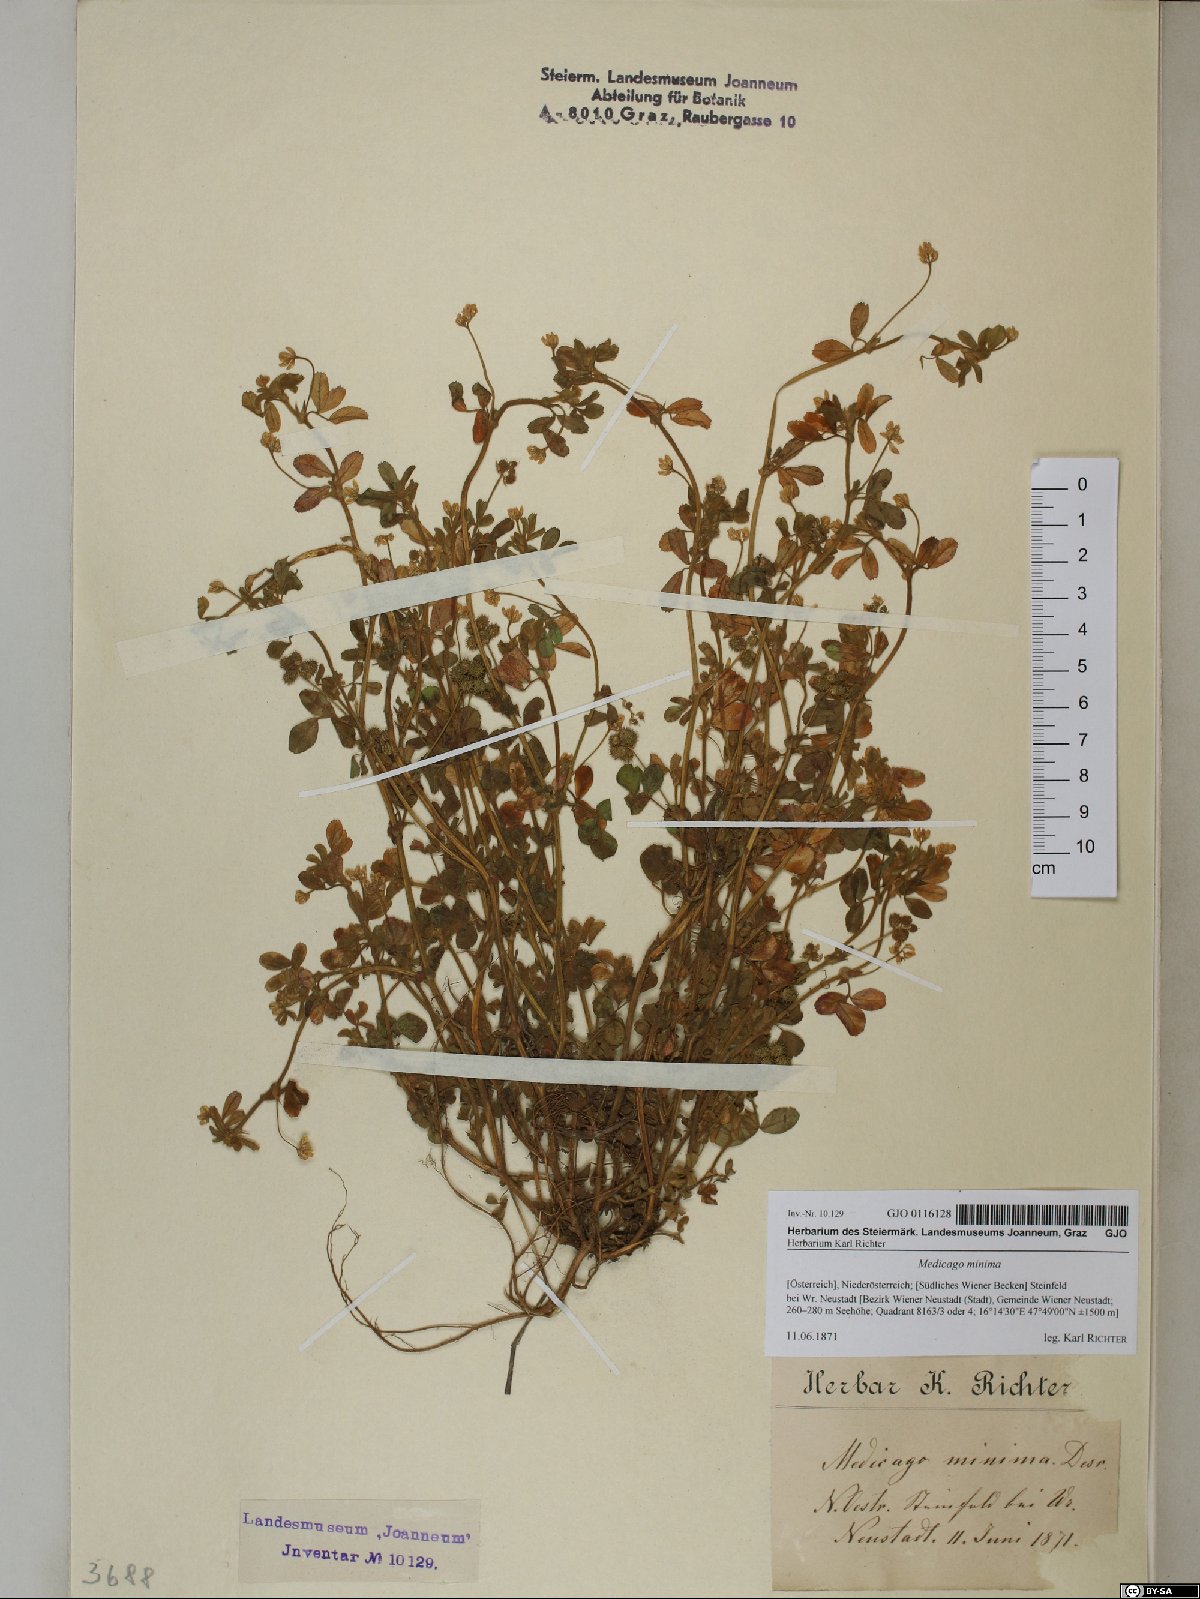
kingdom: Plantae
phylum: Tracheophyta
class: Magnoliopsida
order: Fabales
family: Fabaceae
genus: Medicago
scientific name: Medicago minima
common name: Little bur-clover
